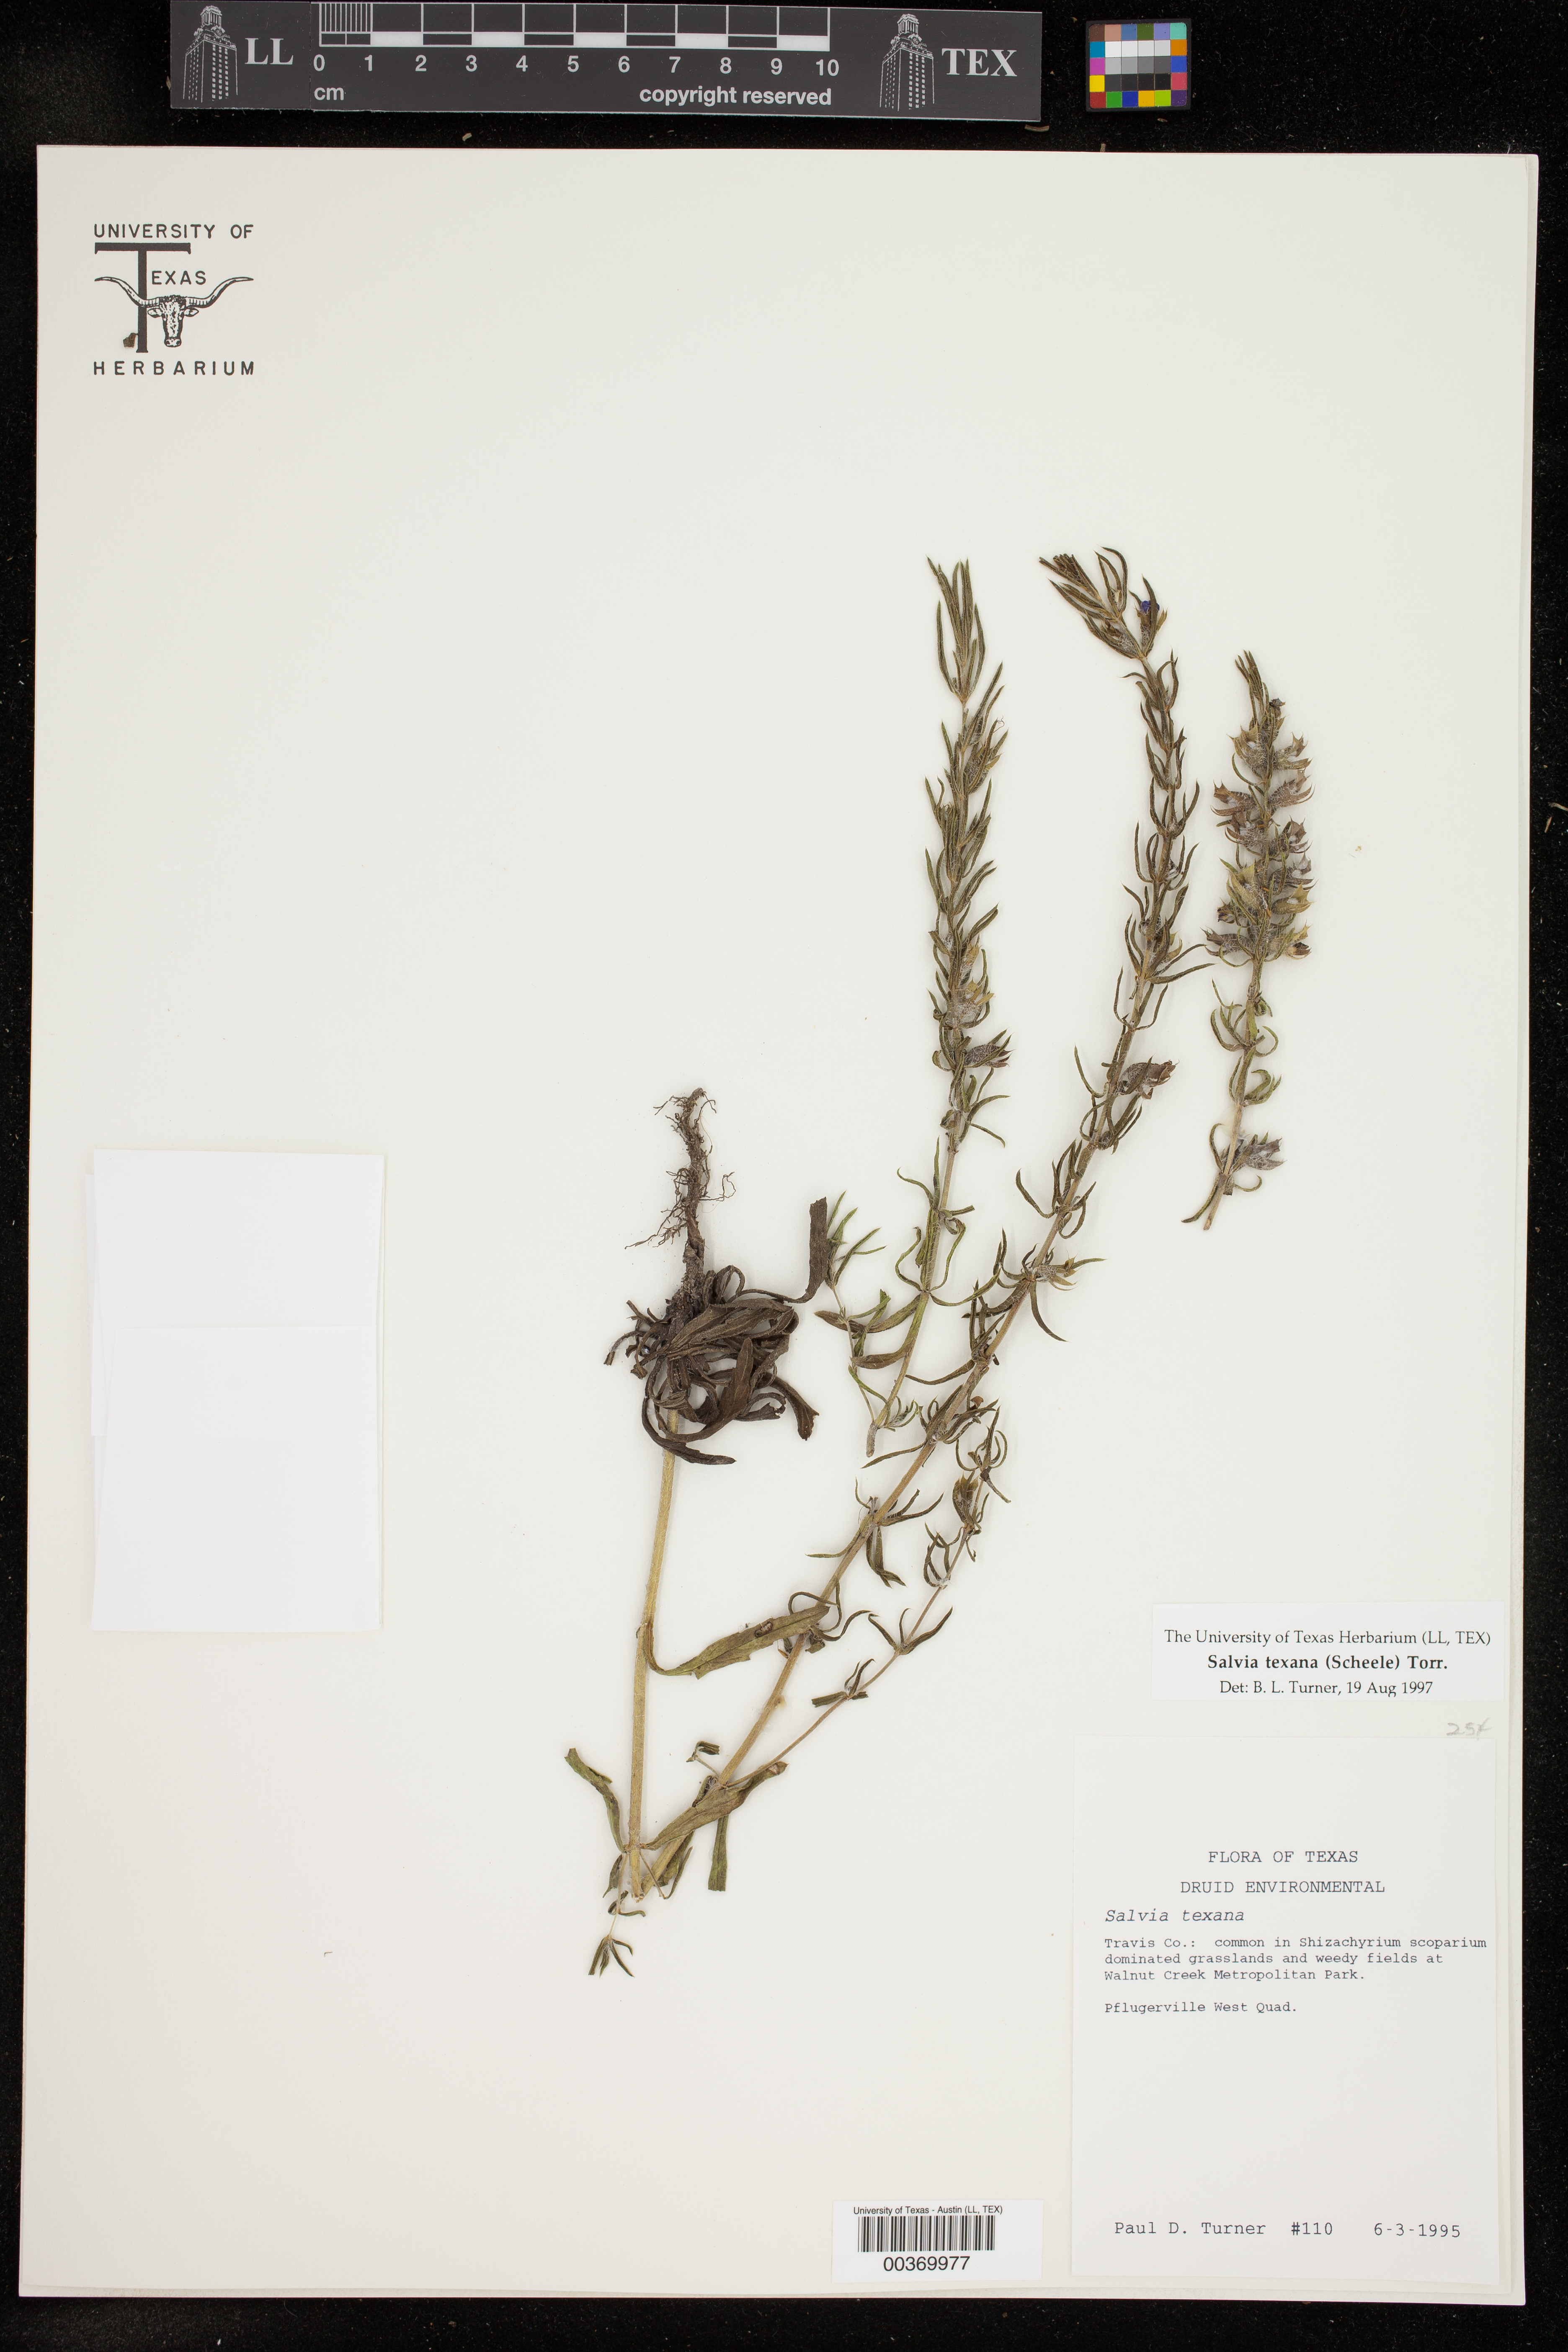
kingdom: Plantae
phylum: Tracheophyta
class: Magnoliopsida
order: Lamiales
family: Lamiaceae
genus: Salvia
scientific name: Salvia texana
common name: Texas sage
